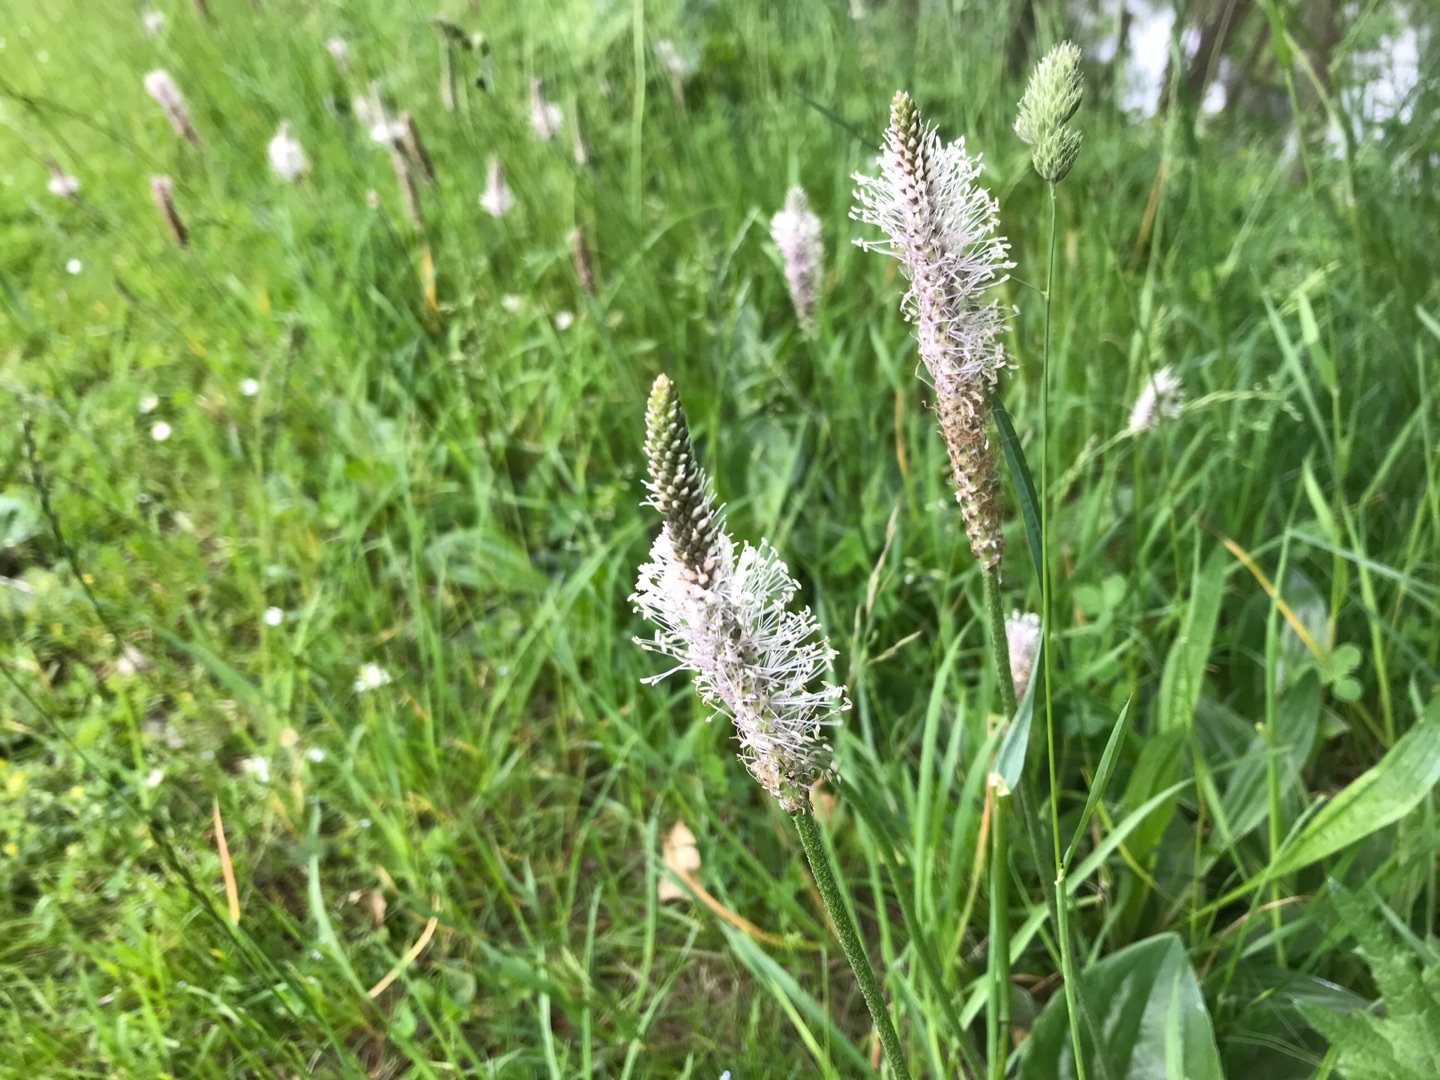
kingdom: Plantae
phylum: Tracheophyta
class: Magnoliopsida
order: Lamiales
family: Plantaginaceae
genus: Plantago
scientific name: Plantago media
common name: Dunet vejbred
